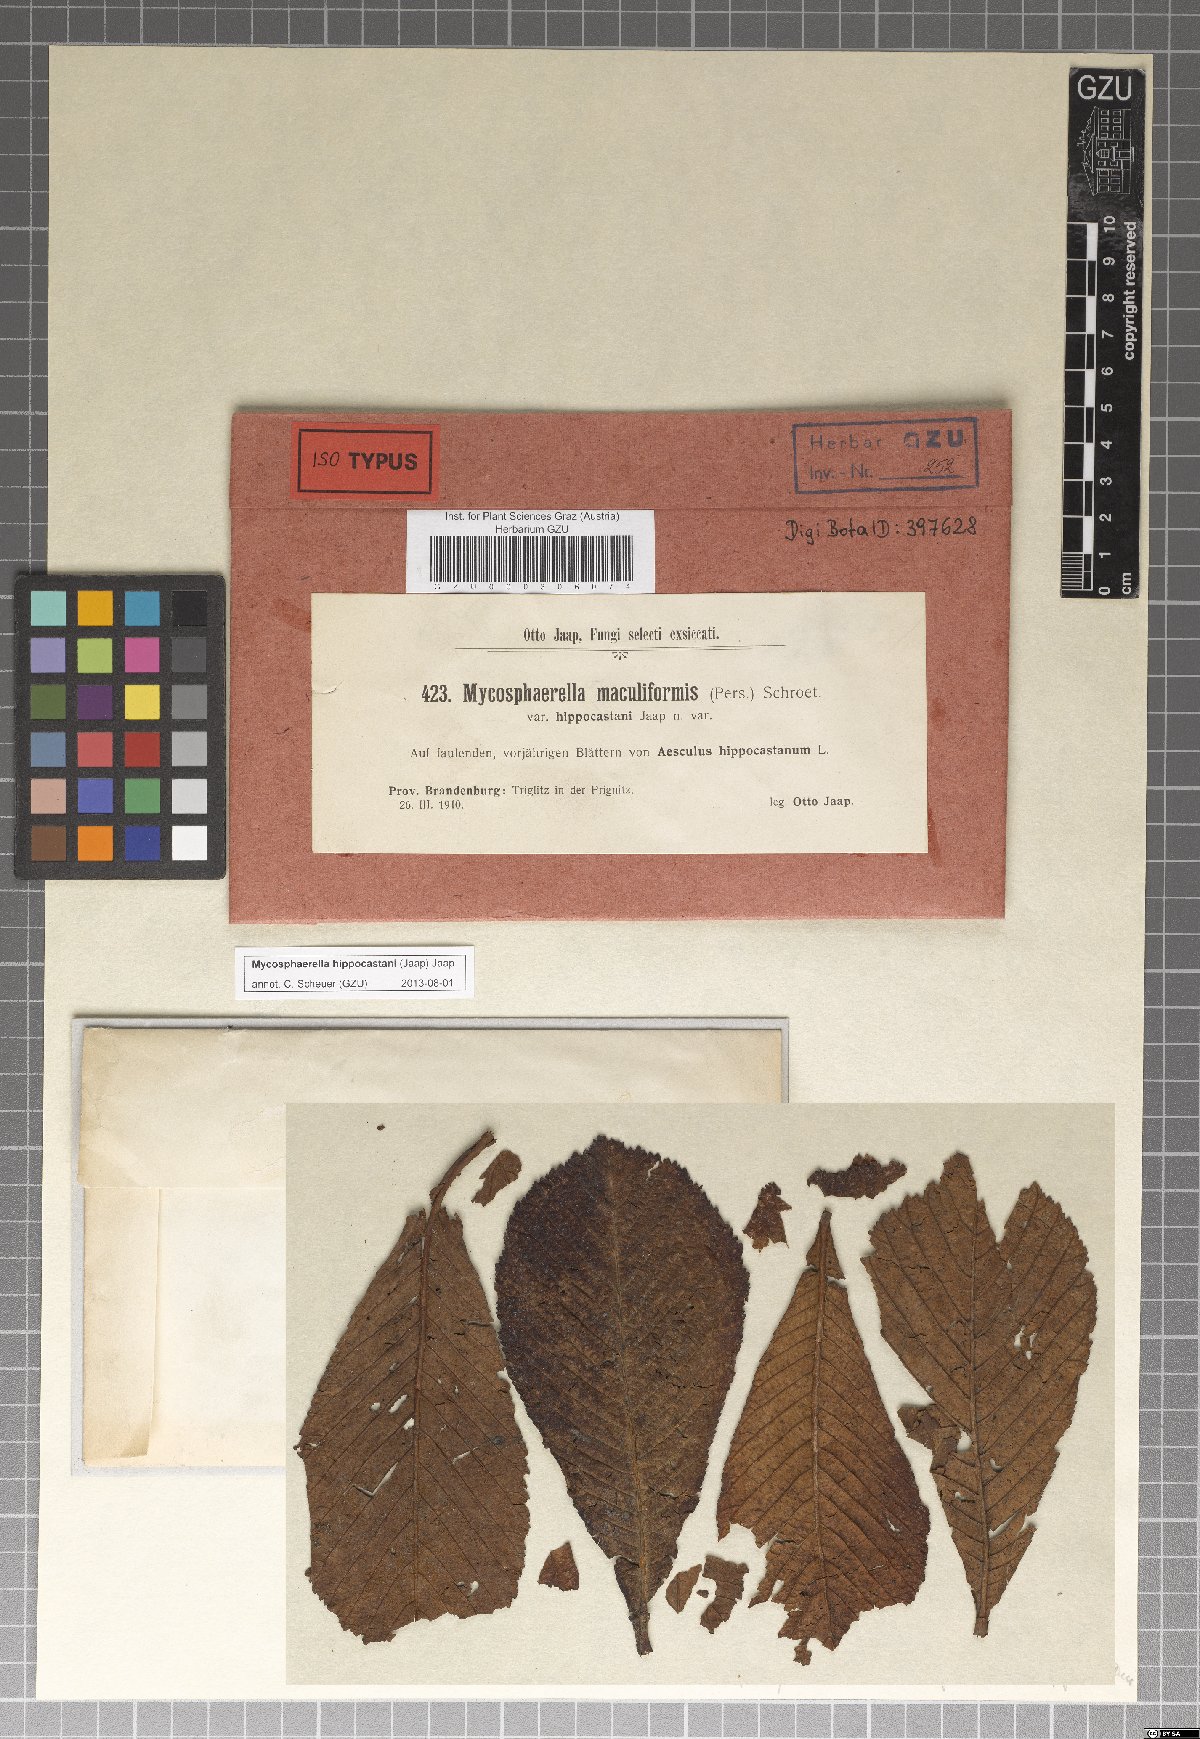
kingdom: Fungi
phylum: Ascomycota
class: Dothideomycetes
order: Mycosphaerellales
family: Mycosphaerellaceae
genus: Mycosphaerella
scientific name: Mycosphaerella maculiformis
